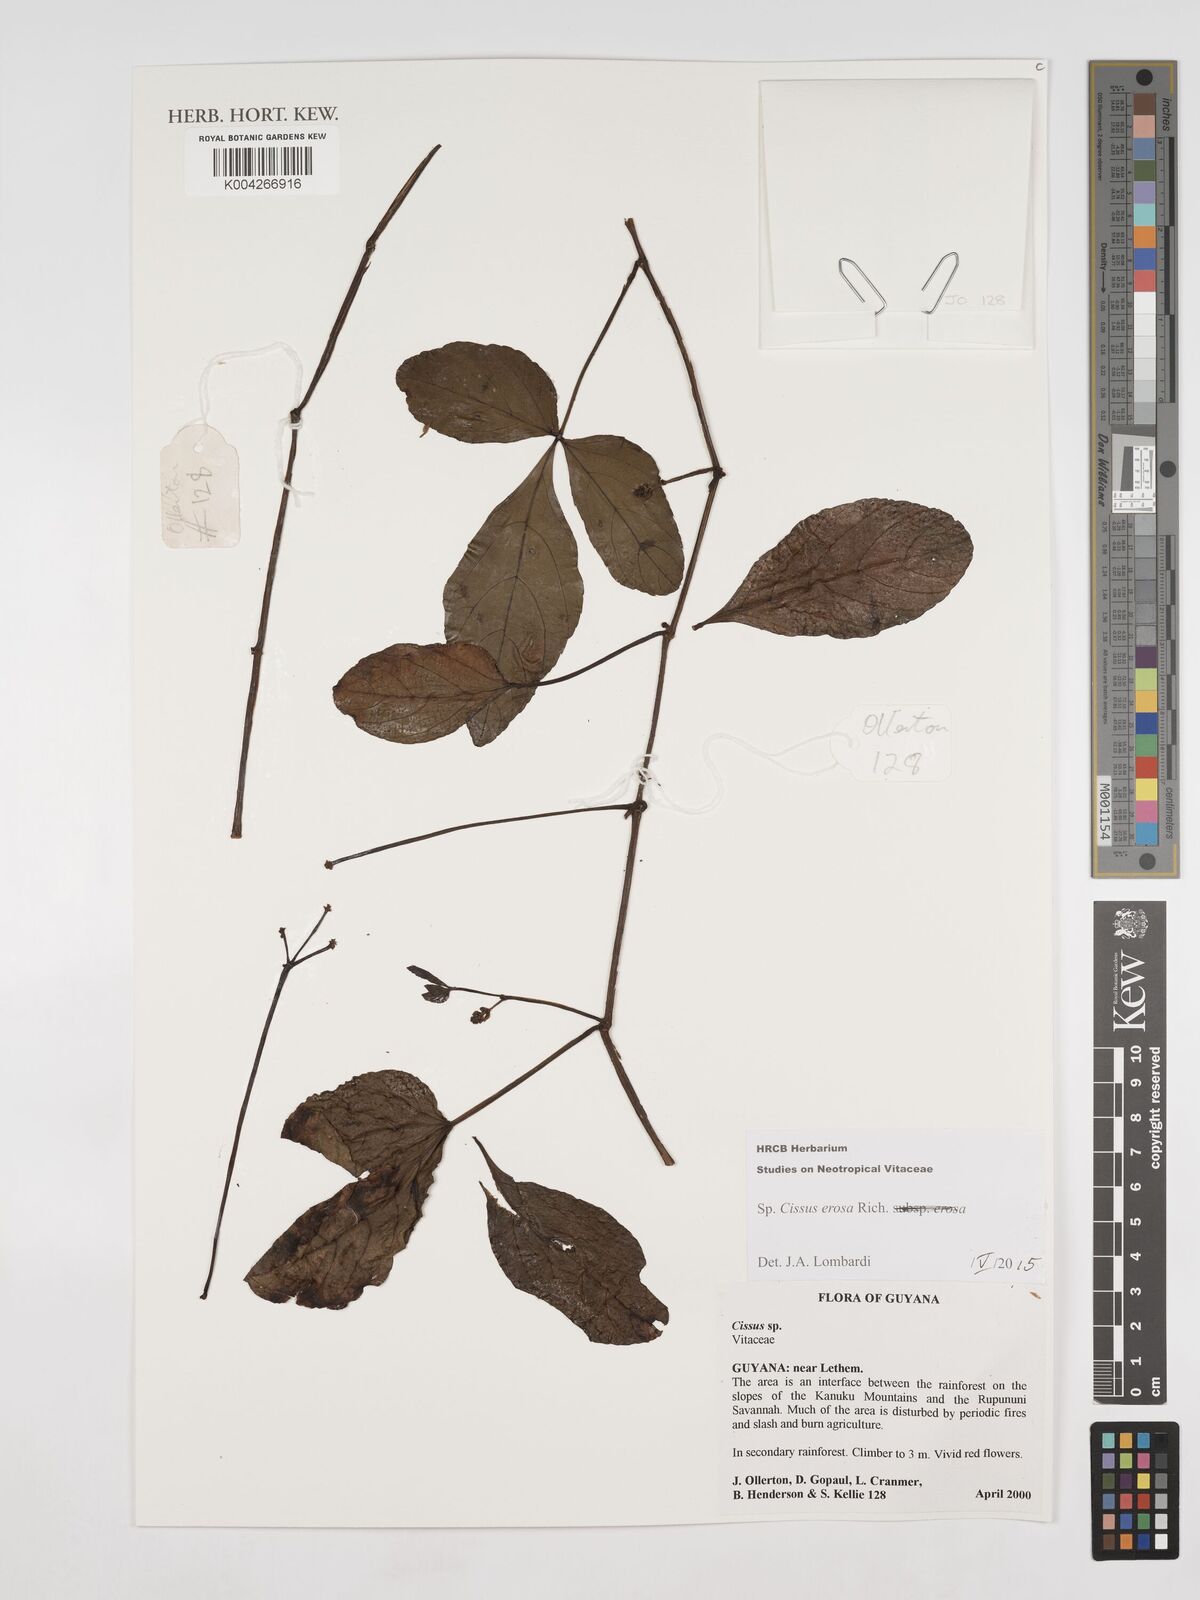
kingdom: Plantae
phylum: Tracheophyta
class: Magnoliopsida
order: Vitales
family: Vitaceae
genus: Cissus
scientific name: Cissus erosa
